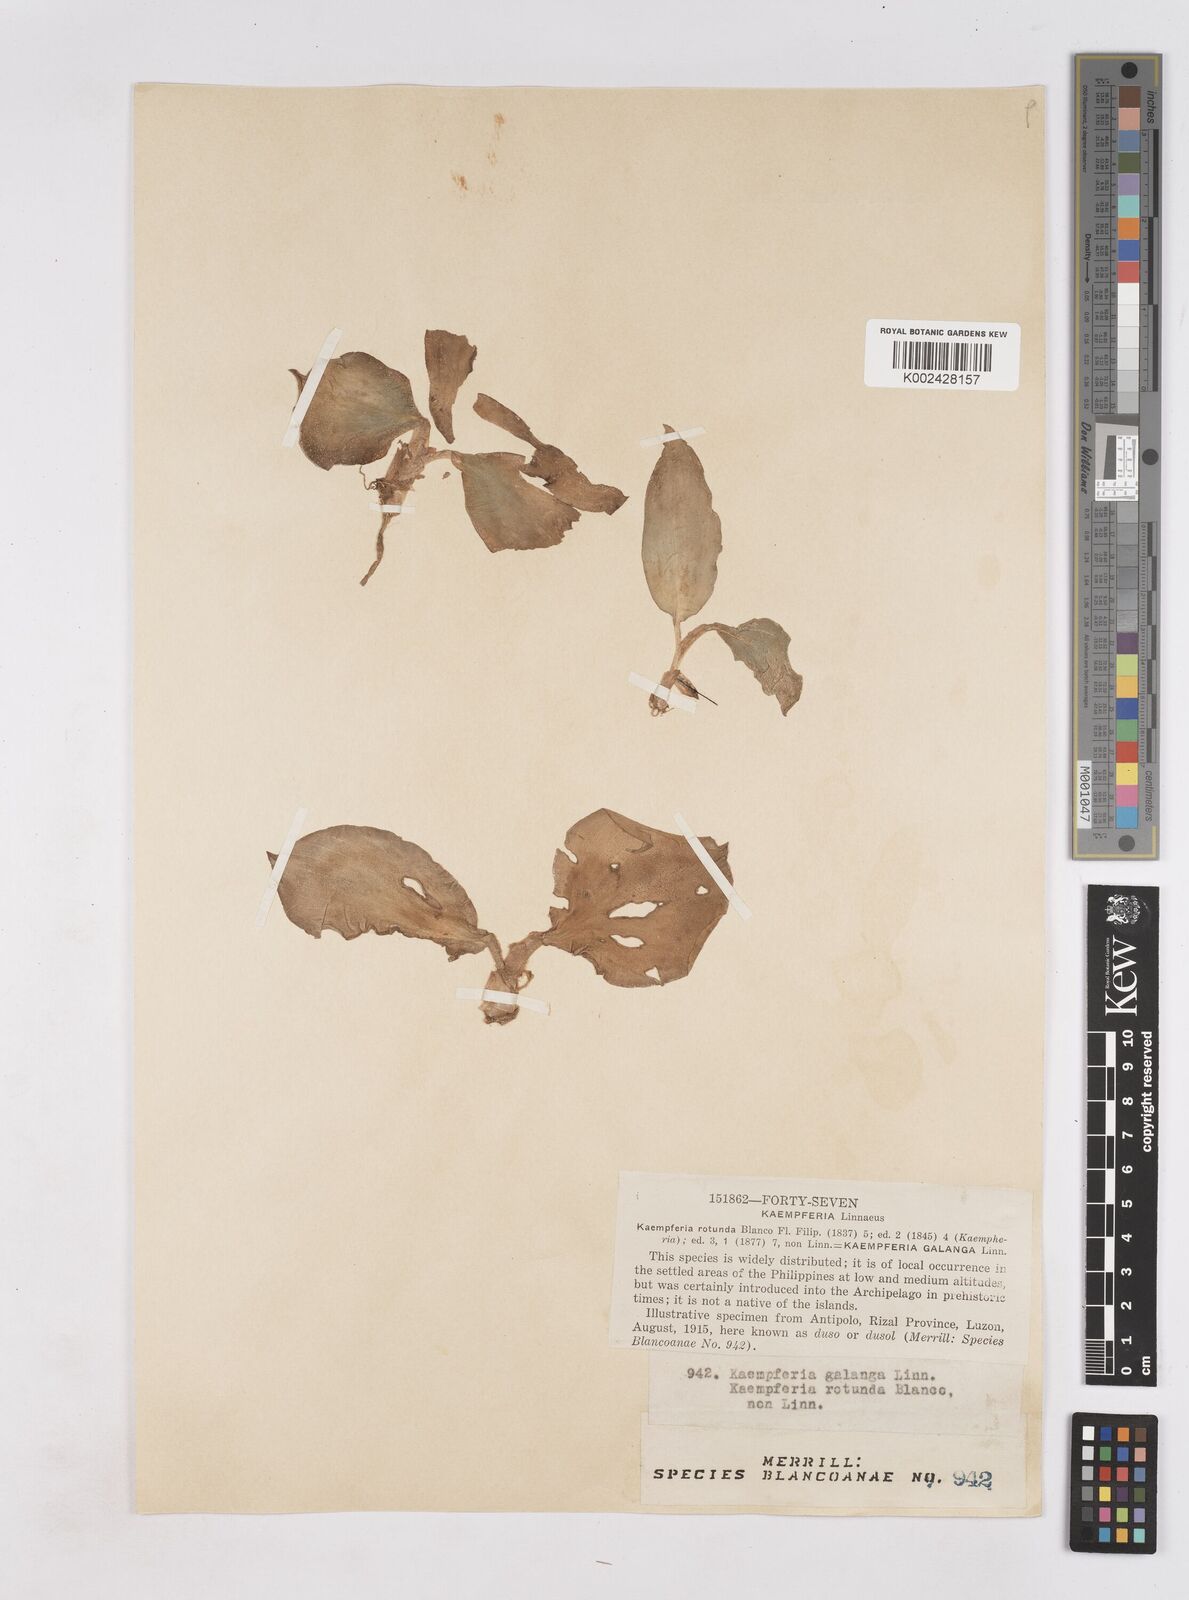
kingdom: Plantae
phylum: Tracheophyta
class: Liliopsida
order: Zingiberales
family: Zingiberaceae
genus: Kaempferia
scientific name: Kaempferia galanga
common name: Aromatic ginger
